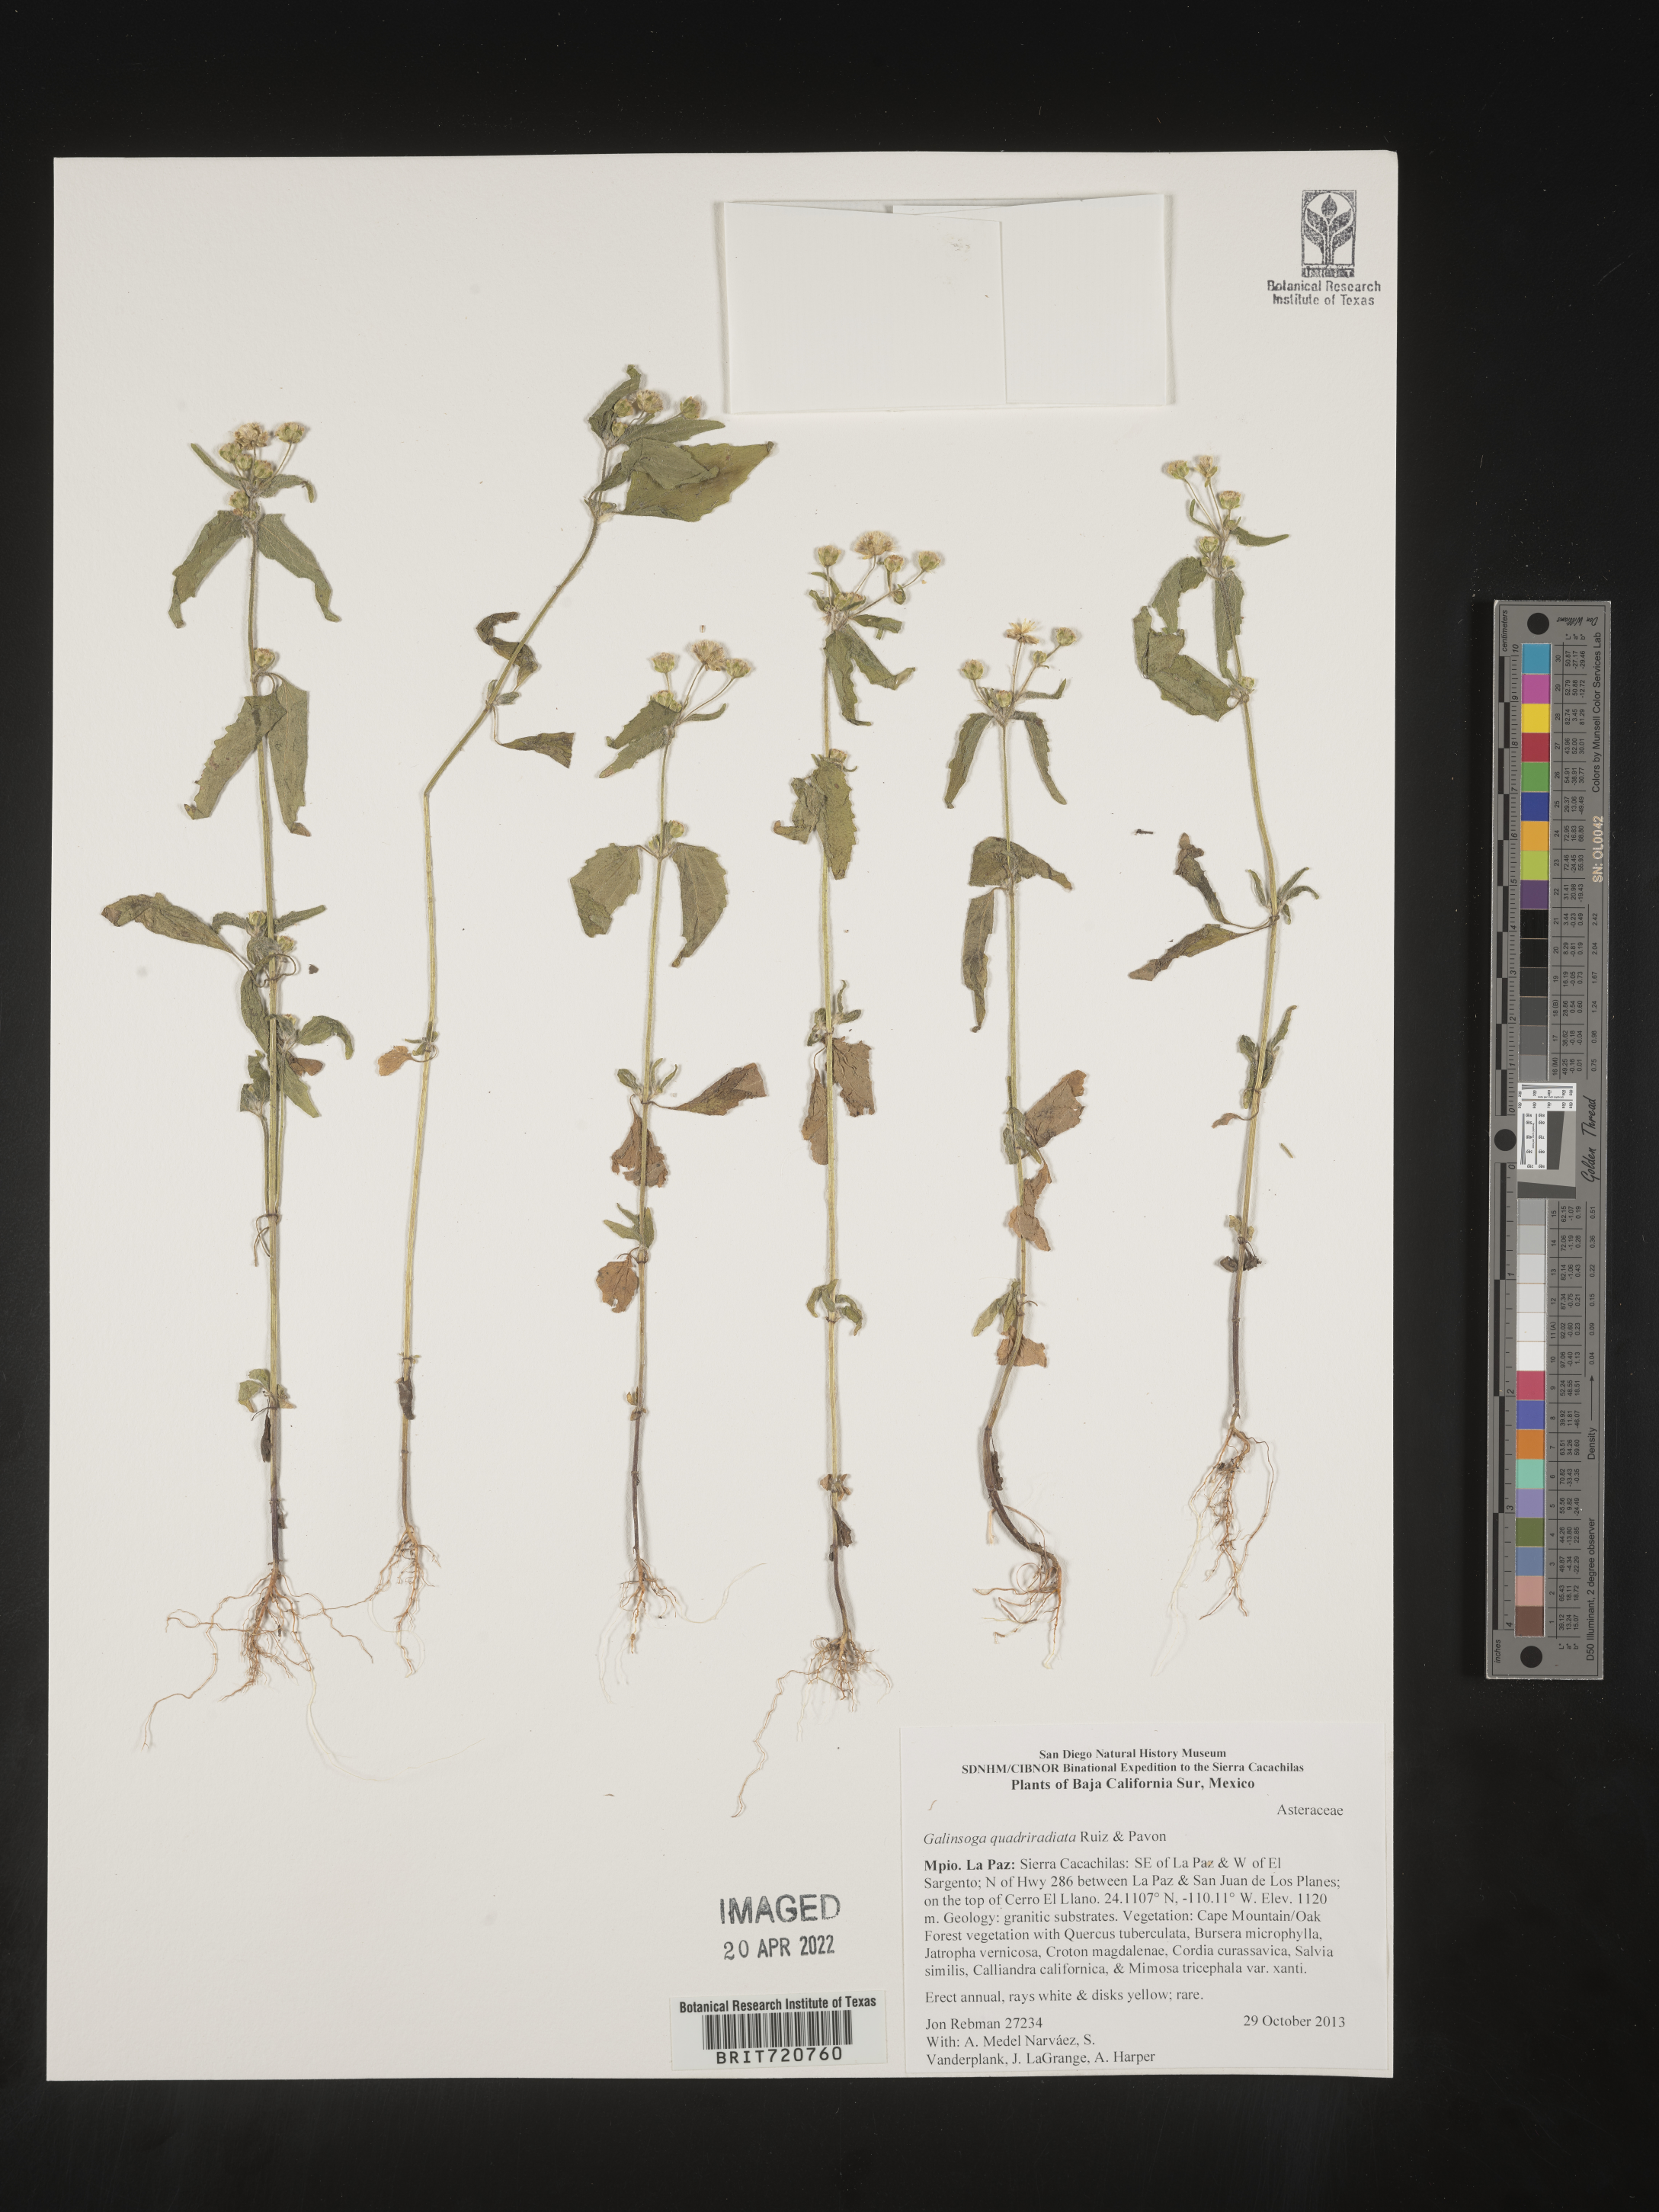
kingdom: Plantae
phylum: Tracheophyta
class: Magnoliopsida
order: Asterales
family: Asteraceae
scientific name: Asteraceae
